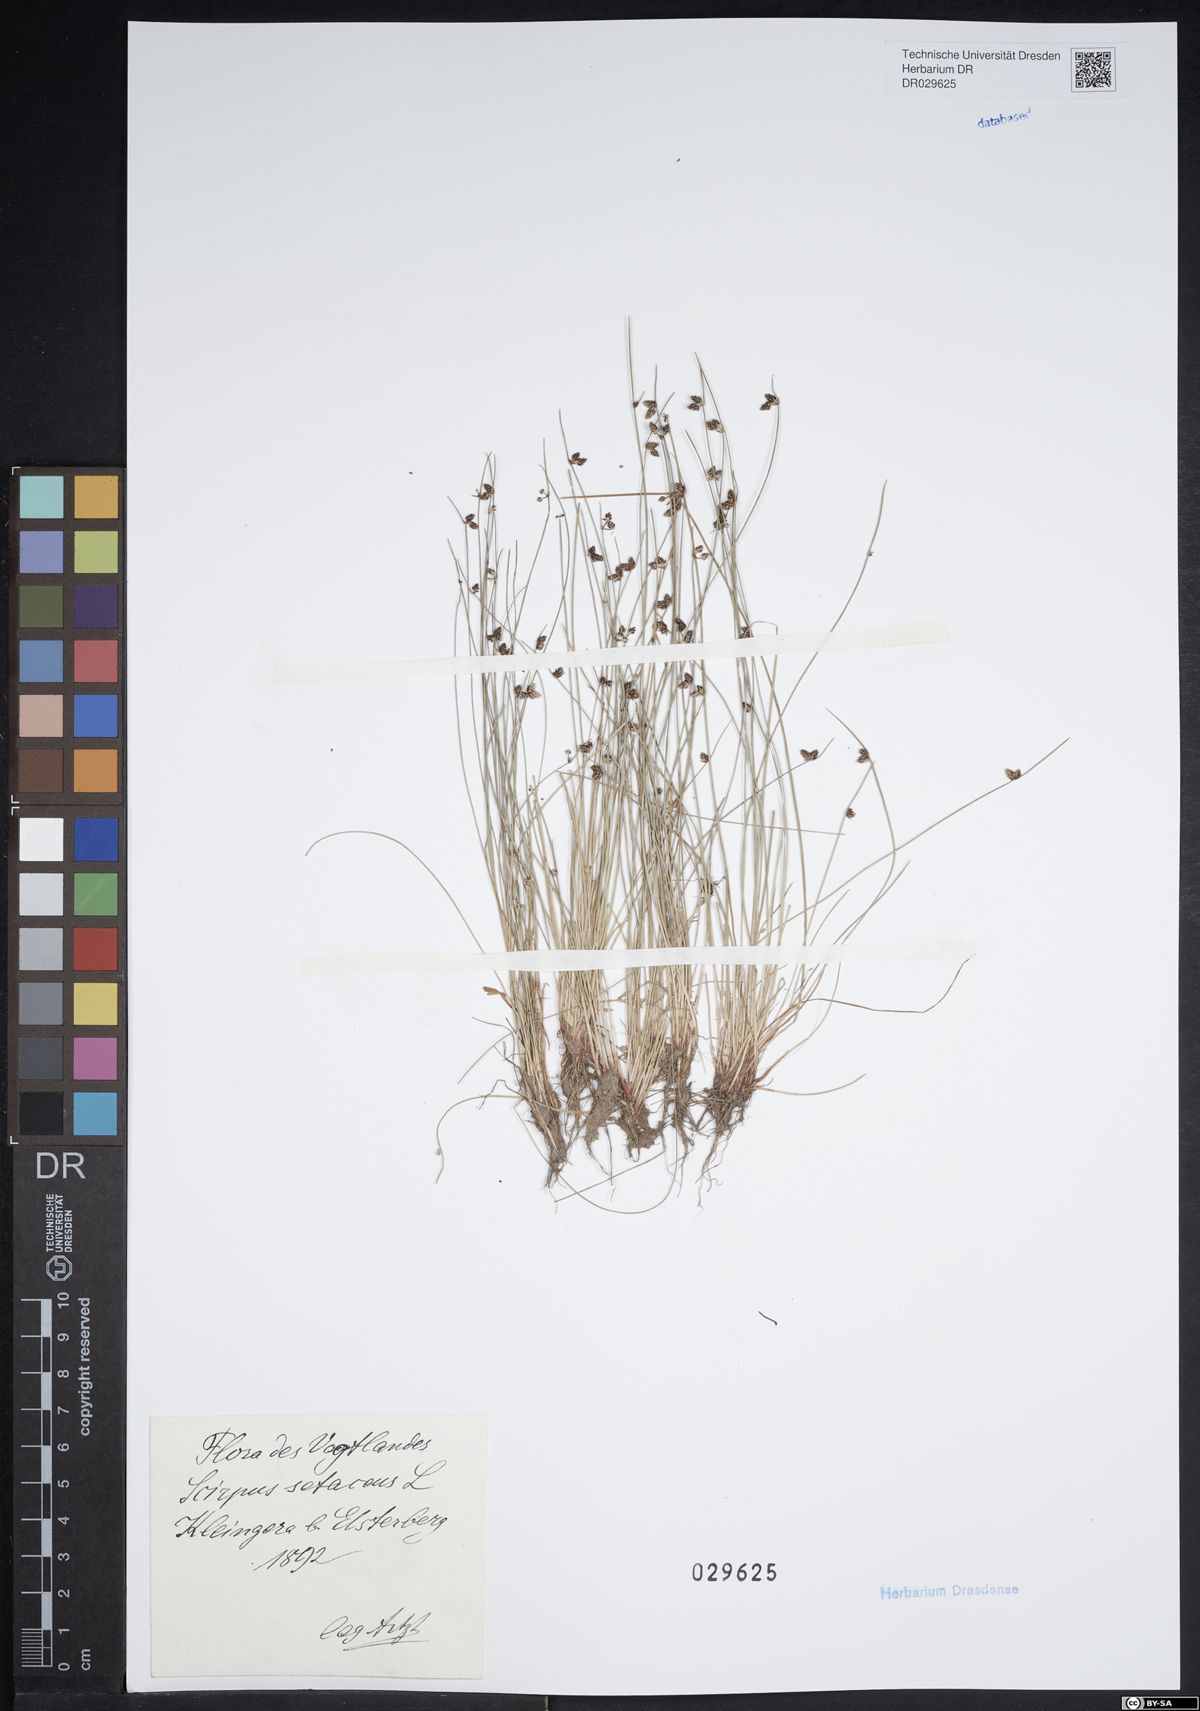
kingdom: Plantae
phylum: Tracheophyta
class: Liliopsida
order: Poales
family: Cyperaceae
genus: Isolepis
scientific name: Isolepis setacea
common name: Bristle club-rush
